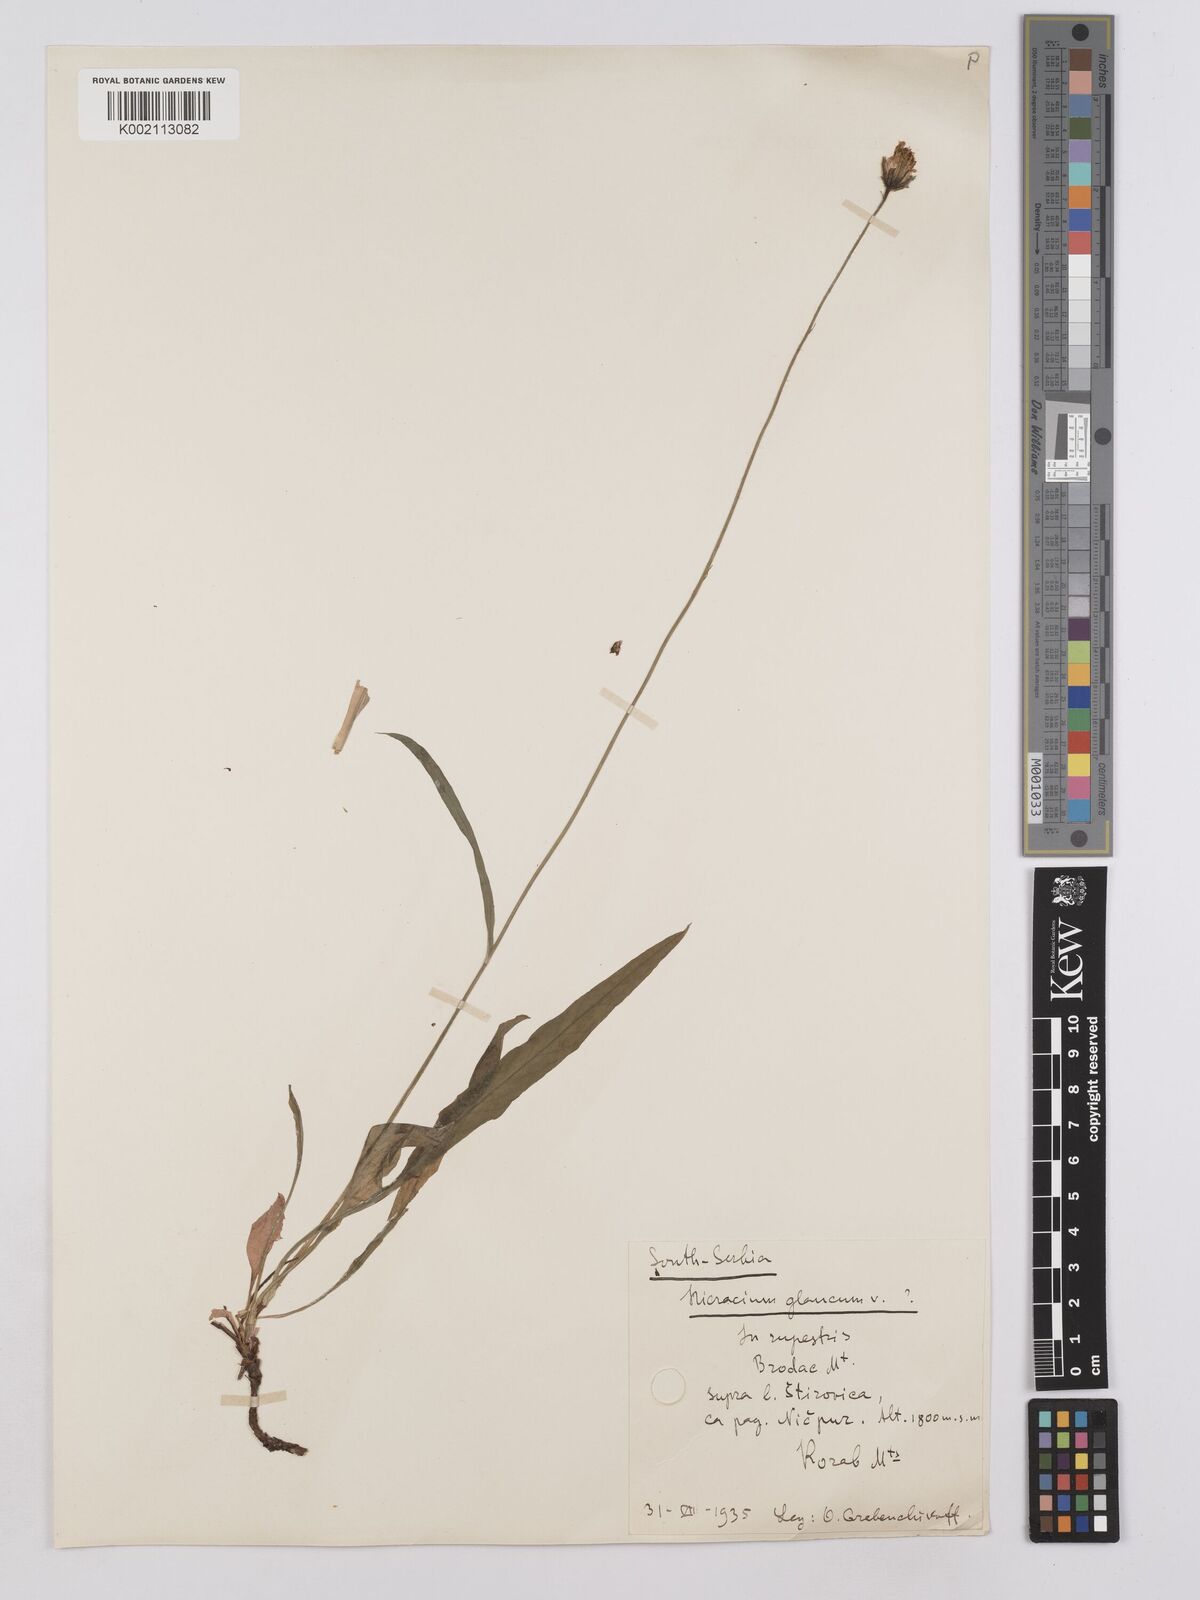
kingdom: Plantae
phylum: Tracheophyta
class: Magnoliopsida
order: Asterales
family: Asteraceae
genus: Hieracium
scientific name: Hieracium glaucum
